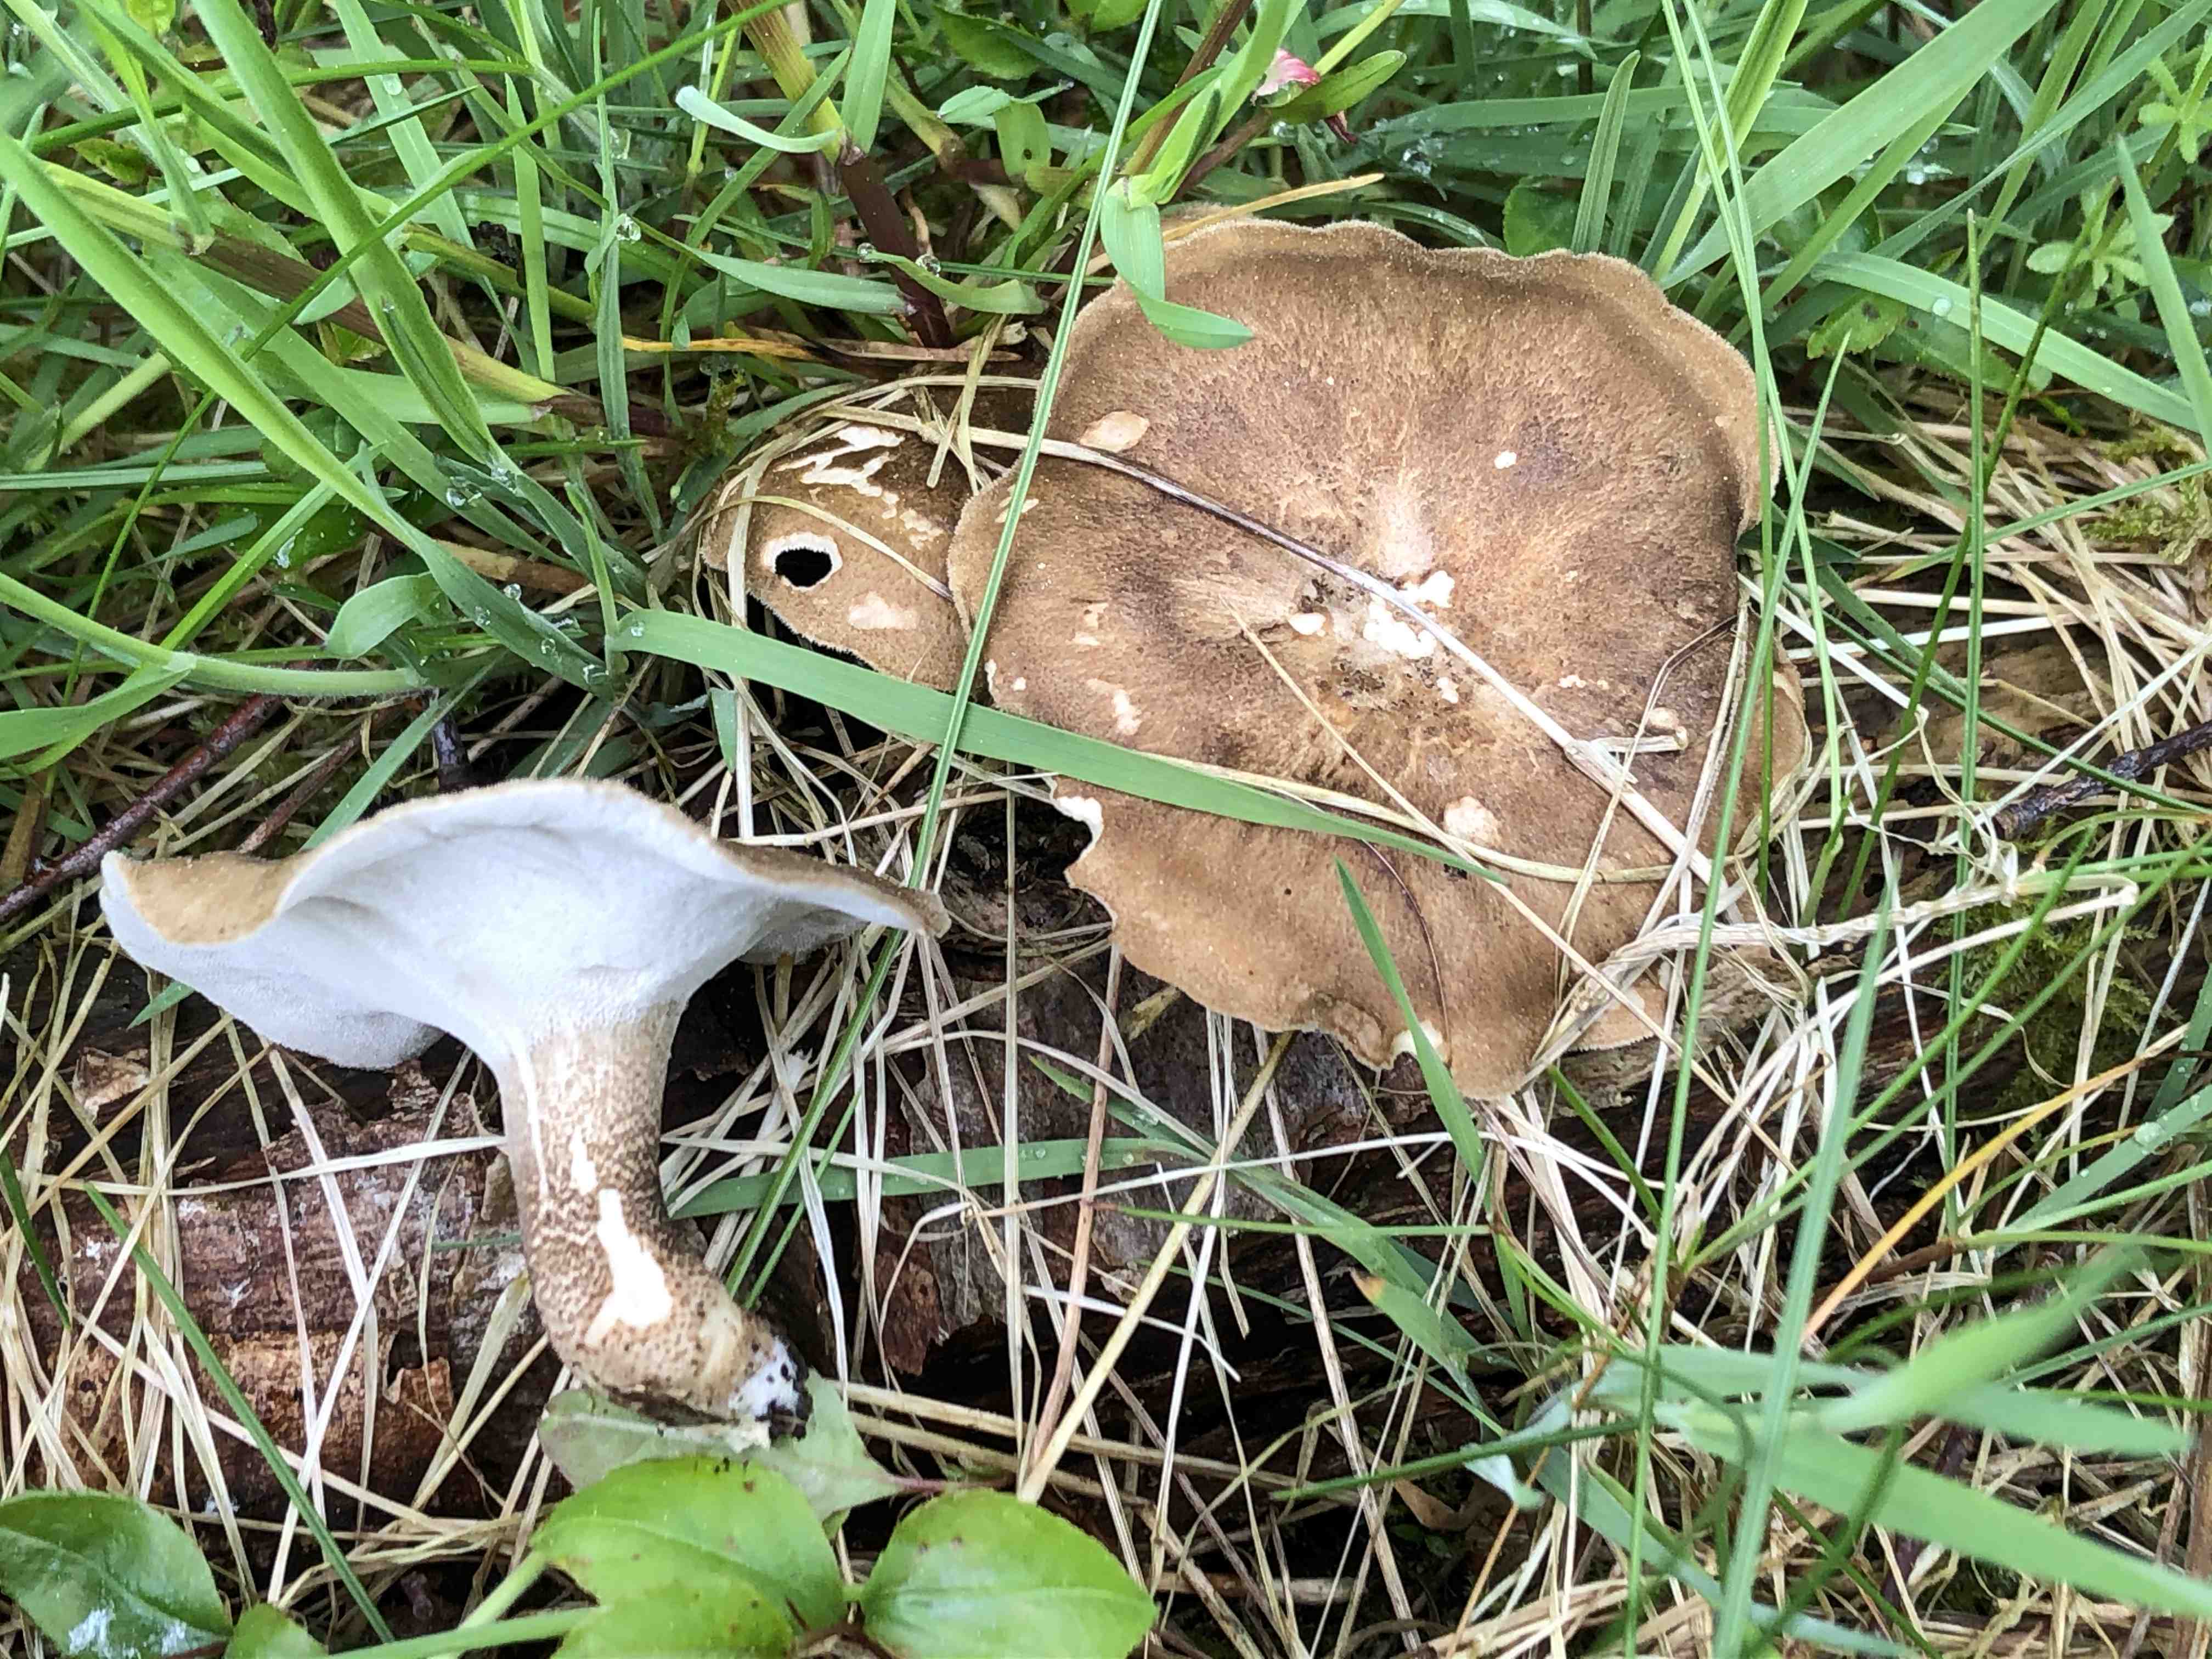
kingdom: Fungi
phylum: Basidiomycota
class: Agaricomycetes
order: Polyporales
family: Polyporaceae
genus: Lentinus
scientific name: Lentinus substrictus
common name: forårs-stilkporesvamp
